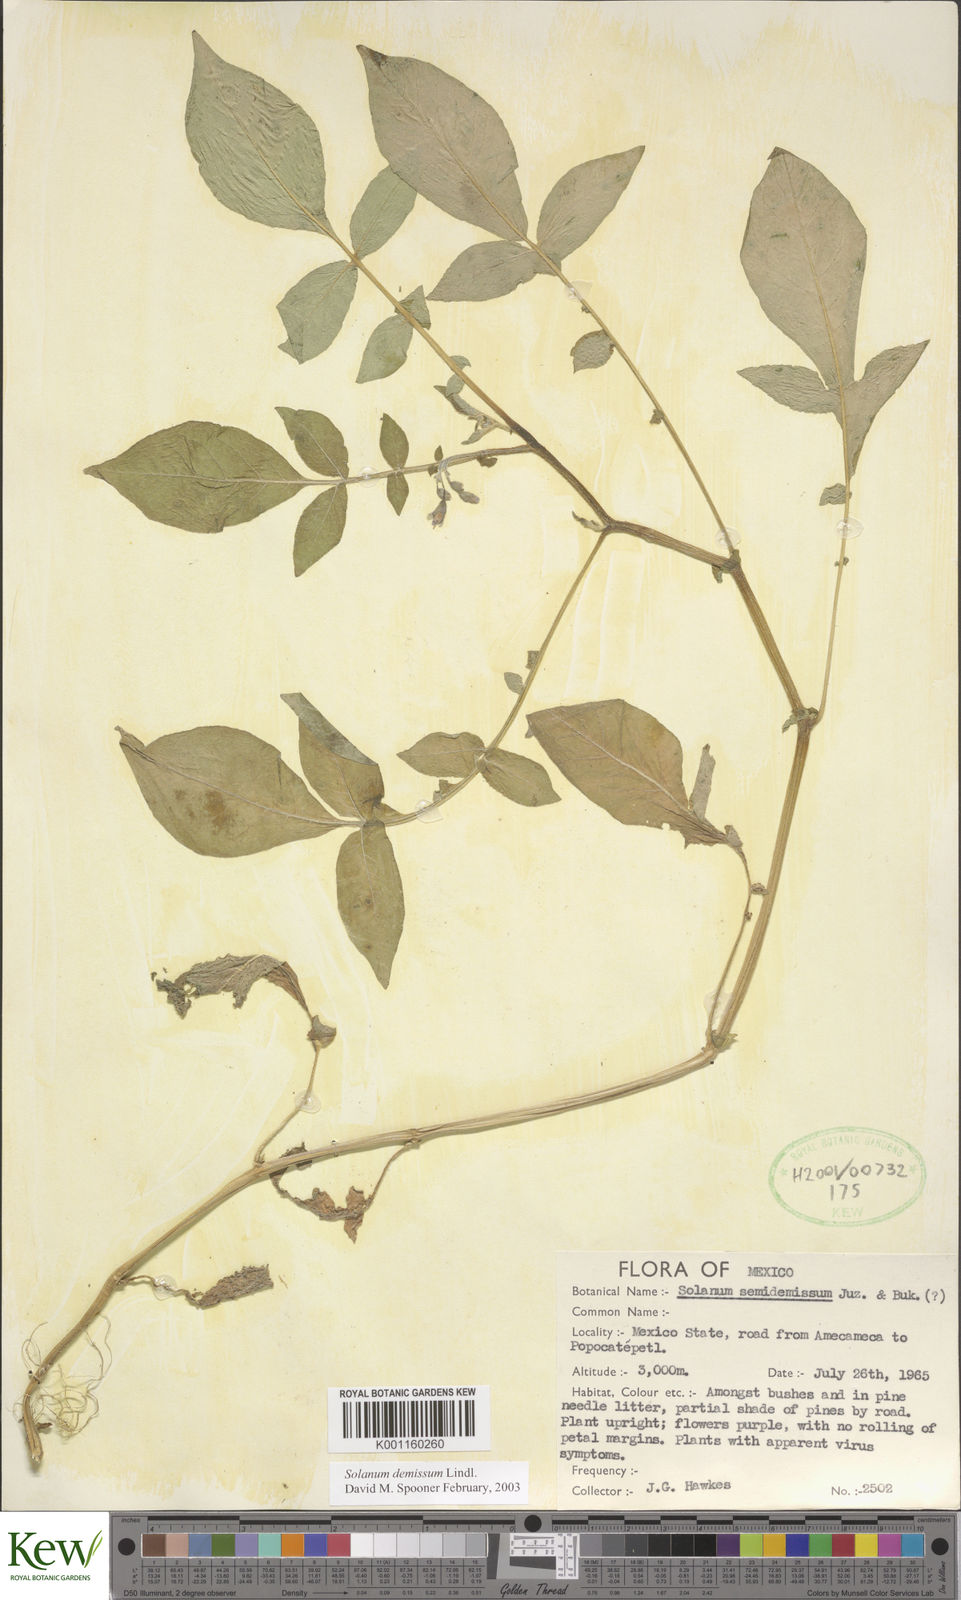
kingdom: Plantae
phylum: Tracheophyta
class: Magnoliopsida
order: Solanales
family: Solanaceae
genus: Solanum
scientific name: Solanum demissum
